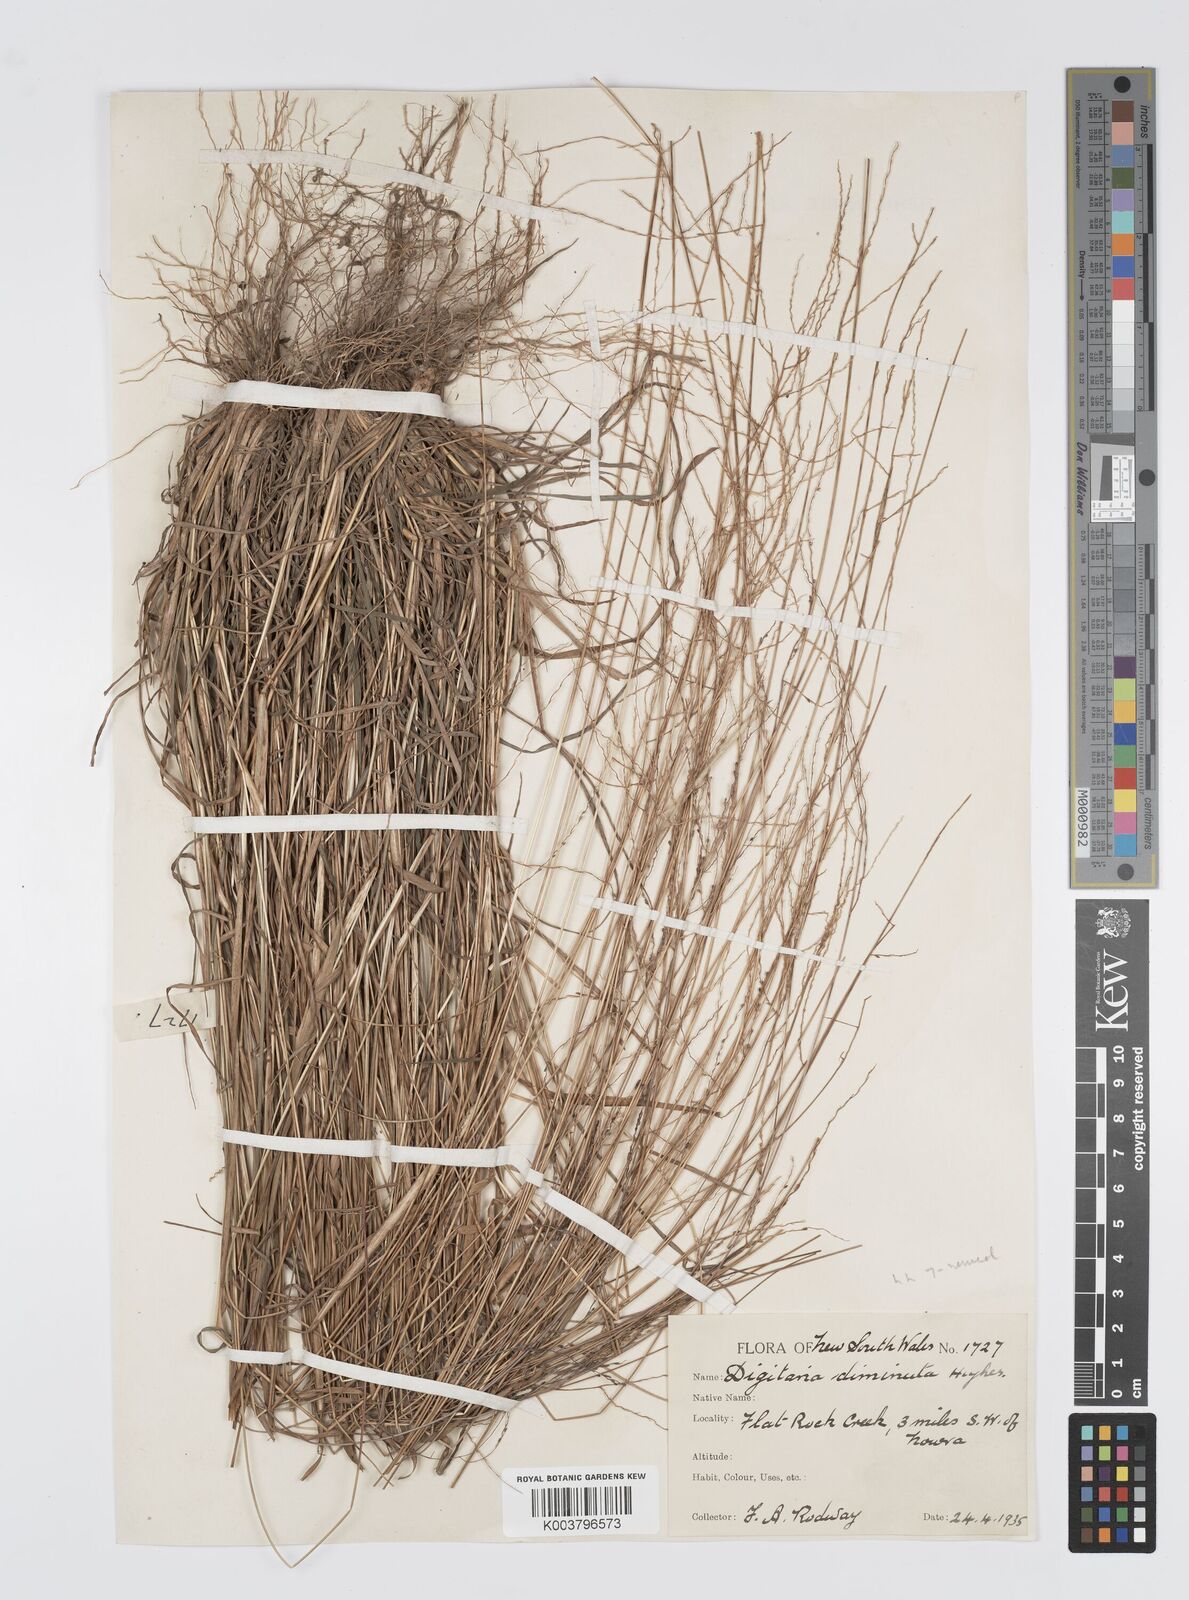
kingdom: Plantae
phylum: Tracheophyta
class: Liliopsida
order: Poales
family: Poaceae
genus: Digitaria
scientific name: Digitaria breviglumis
